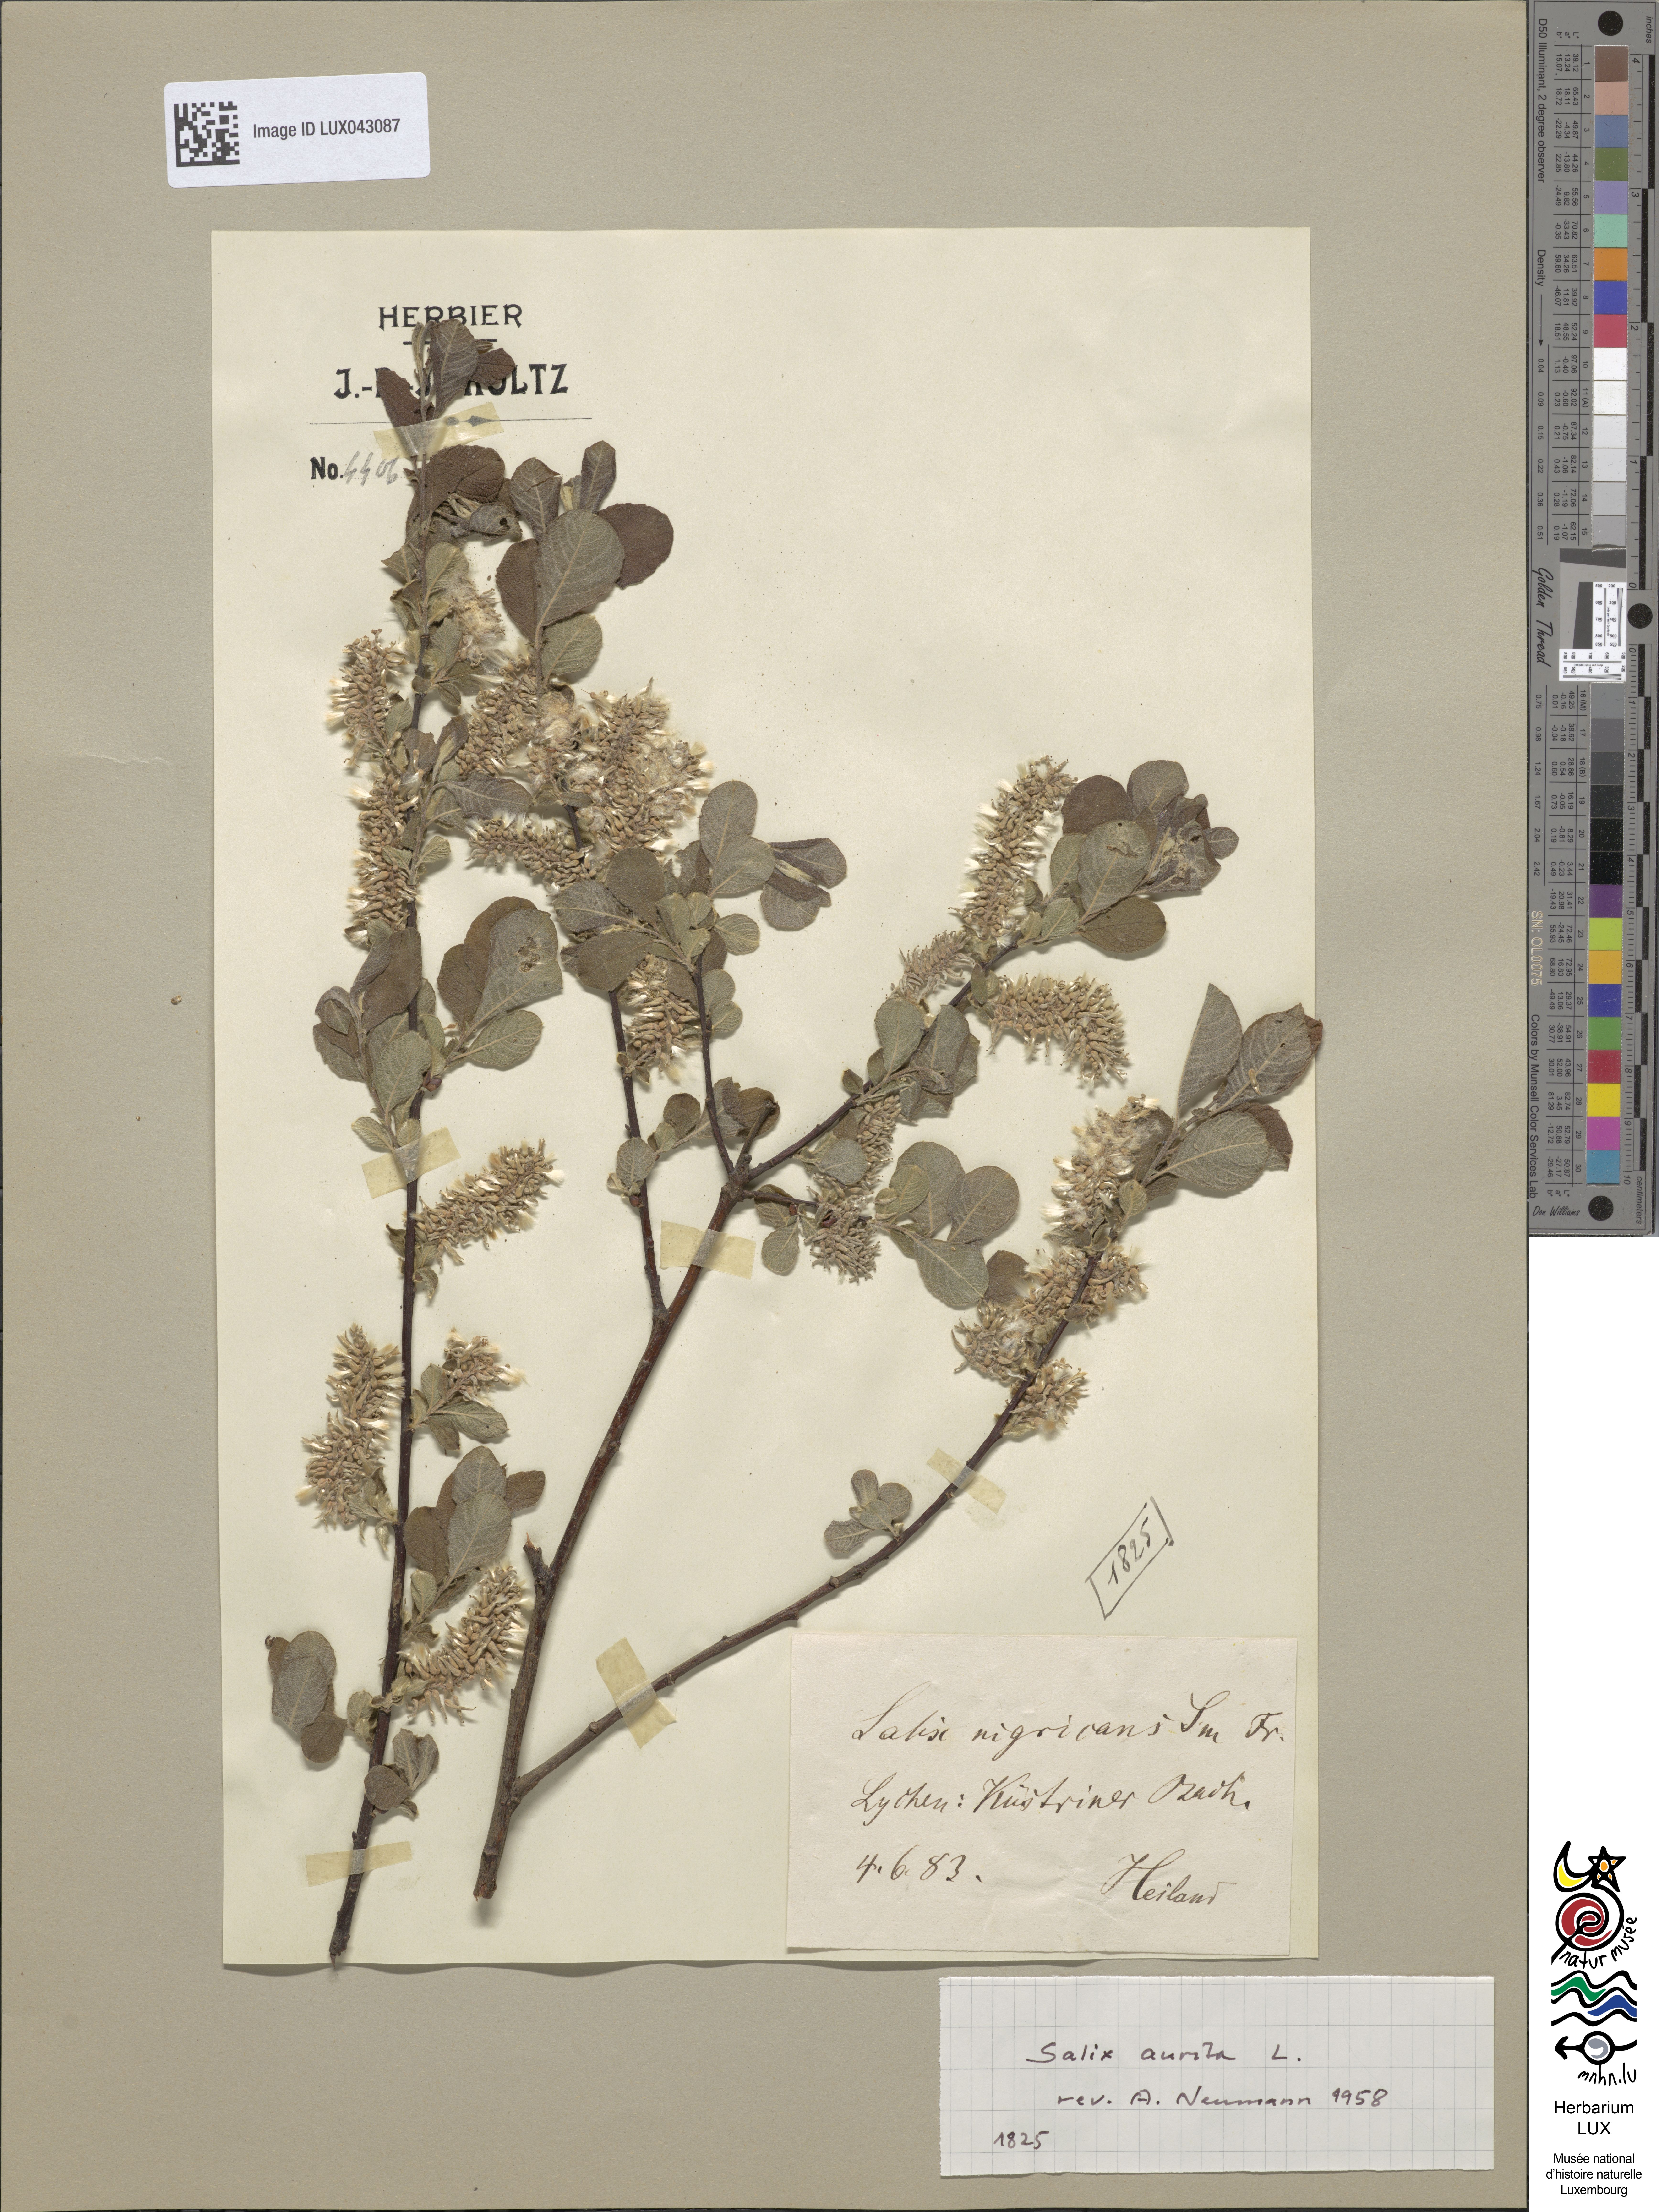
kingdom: Plantae
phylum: Tracheophyta
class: Magnoliopsida
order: Malpighiales
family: Salicaceae
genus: Salix
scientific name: Salix aurita
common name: Eared willow
